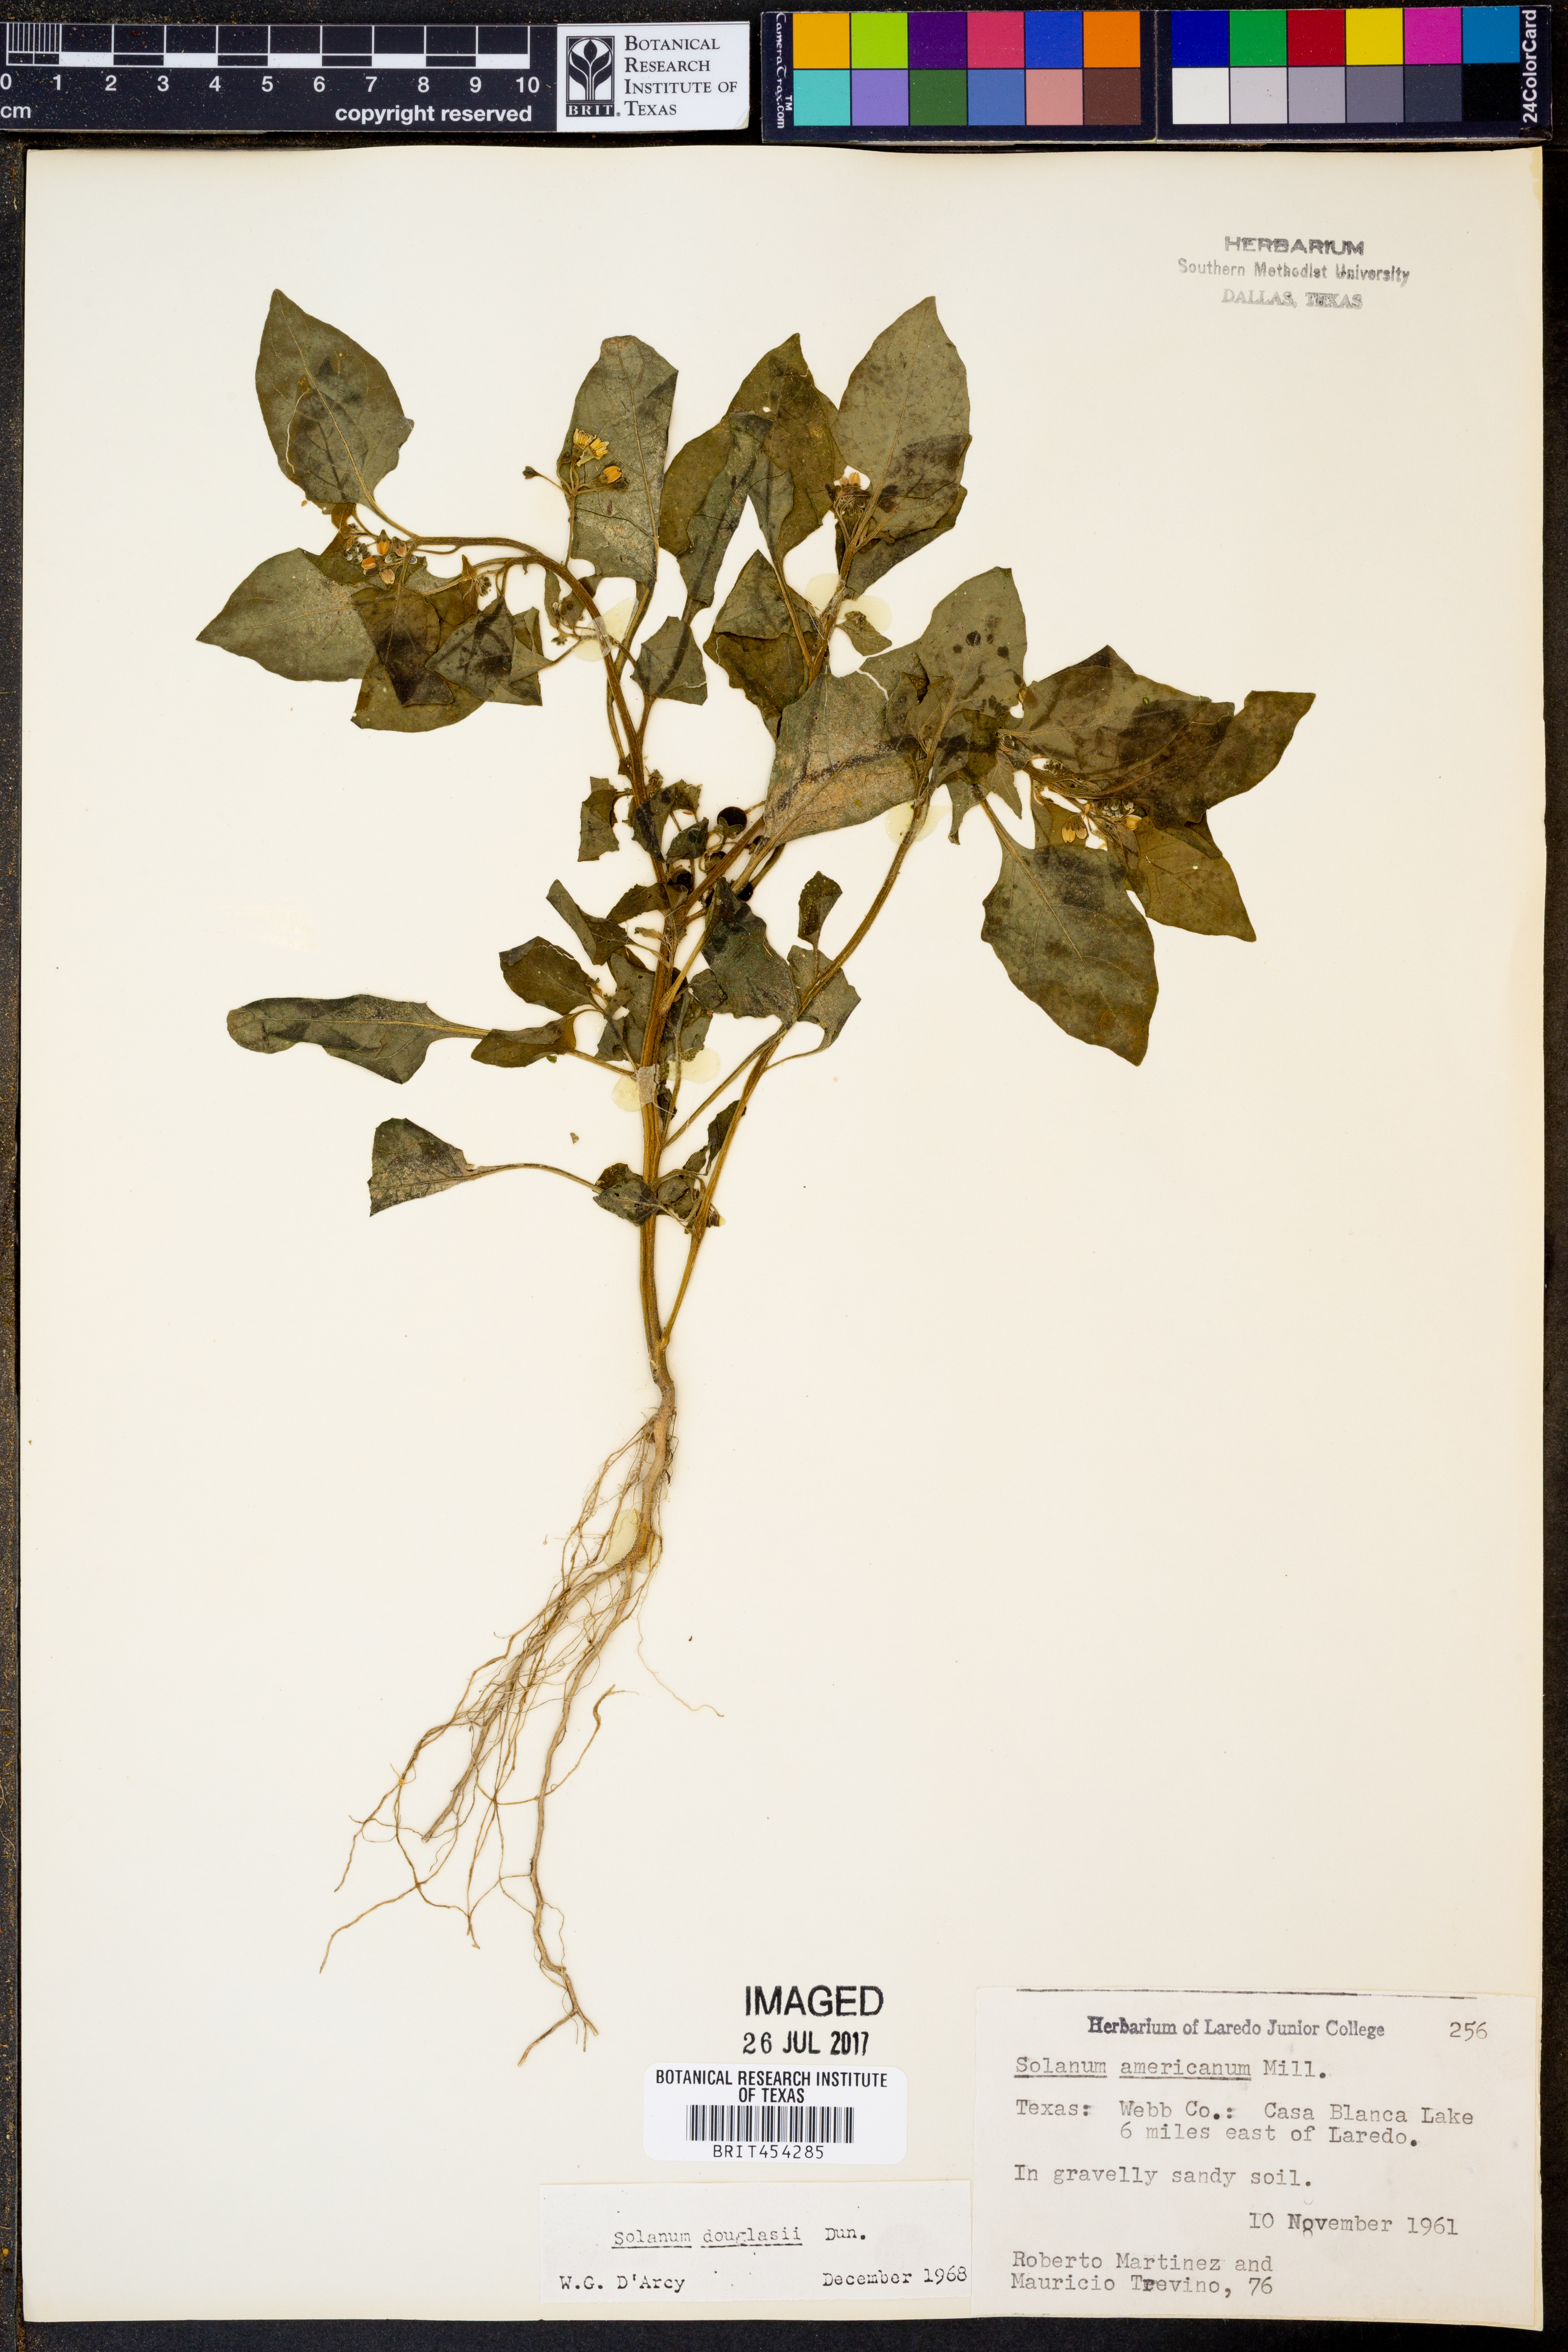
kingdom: Plantae
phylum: Tracheophyta
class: Magnoliopsida
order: Solanales
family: Solanaceae
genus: Solanum
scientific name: Solanum americanum
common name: American black nightshade
